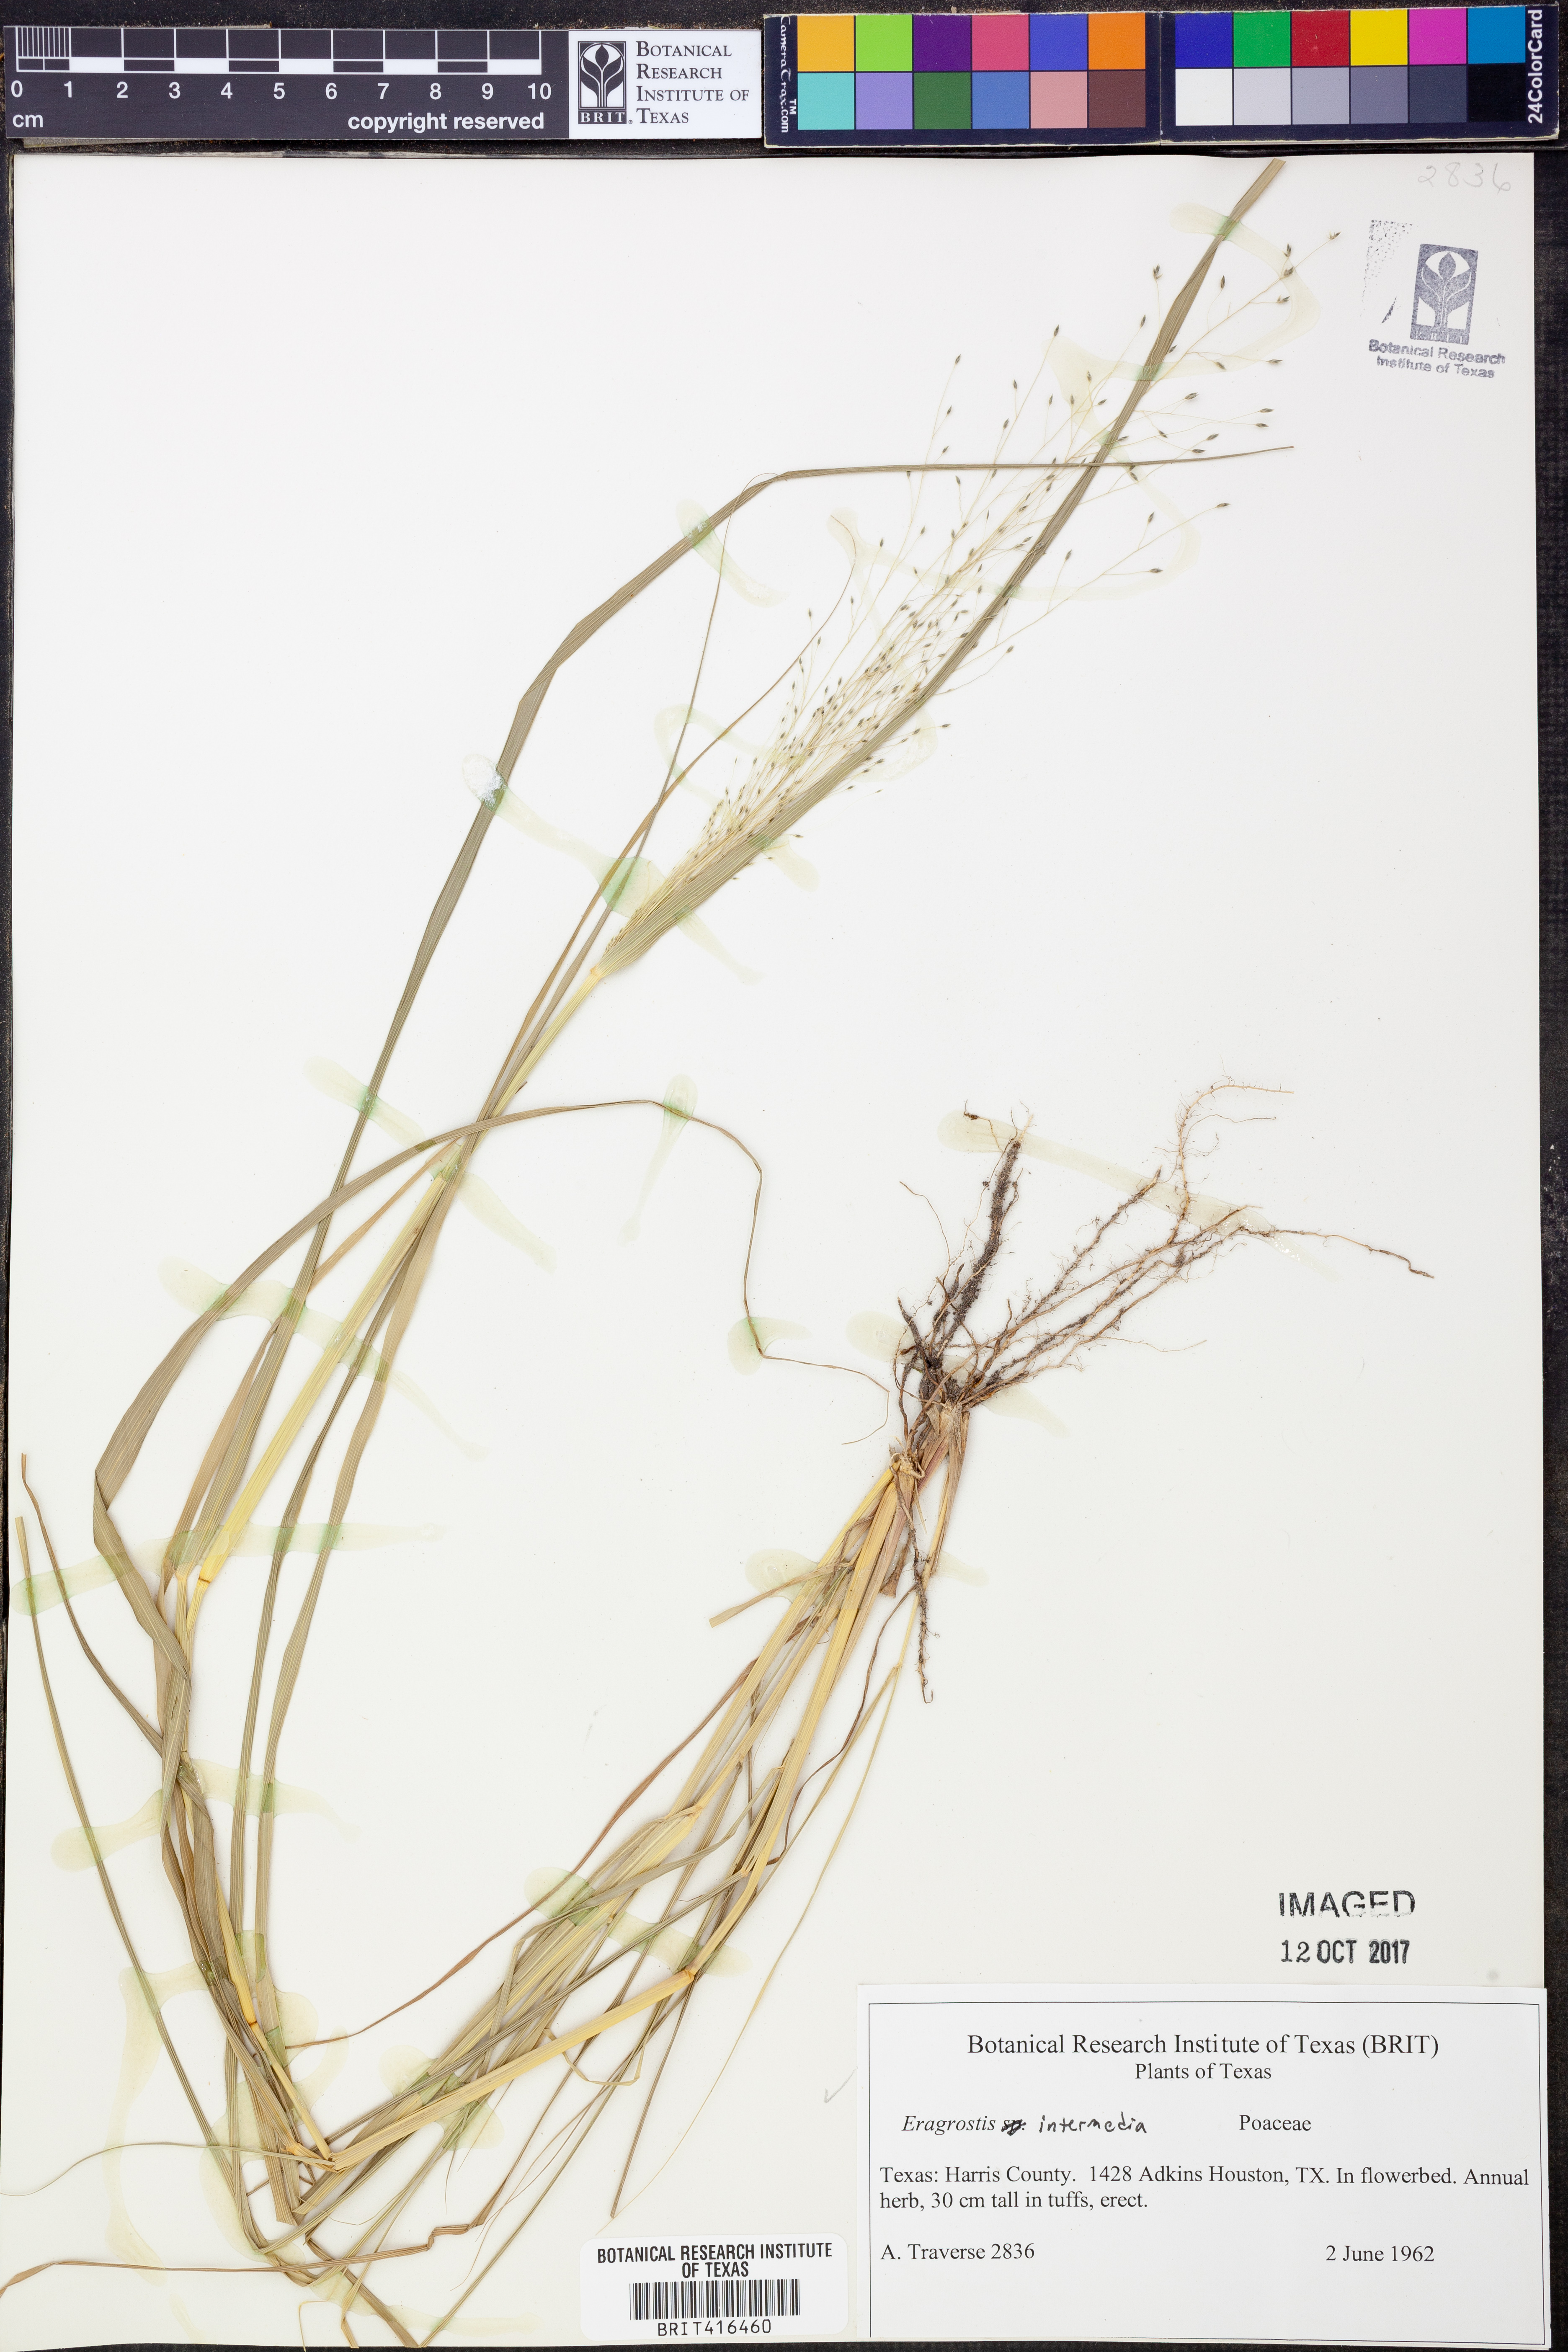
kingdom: Plantae
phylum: Tracheophyta
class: Liliopsida
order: Poales
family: Poaceae
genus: Eragrostis
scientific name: Eragrostis intermedia
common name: Plains love grass
